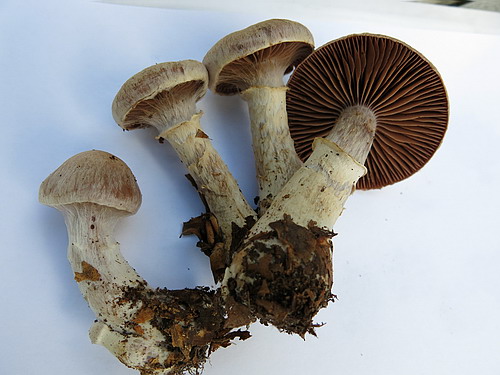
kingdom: Fungi
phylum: Basidiomycota
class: Agaricomycetes
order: Agaricales
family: Cortinariaceae
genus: Cortinarius
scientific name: Cortinarius torvus
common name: champignonagtig slørhat
